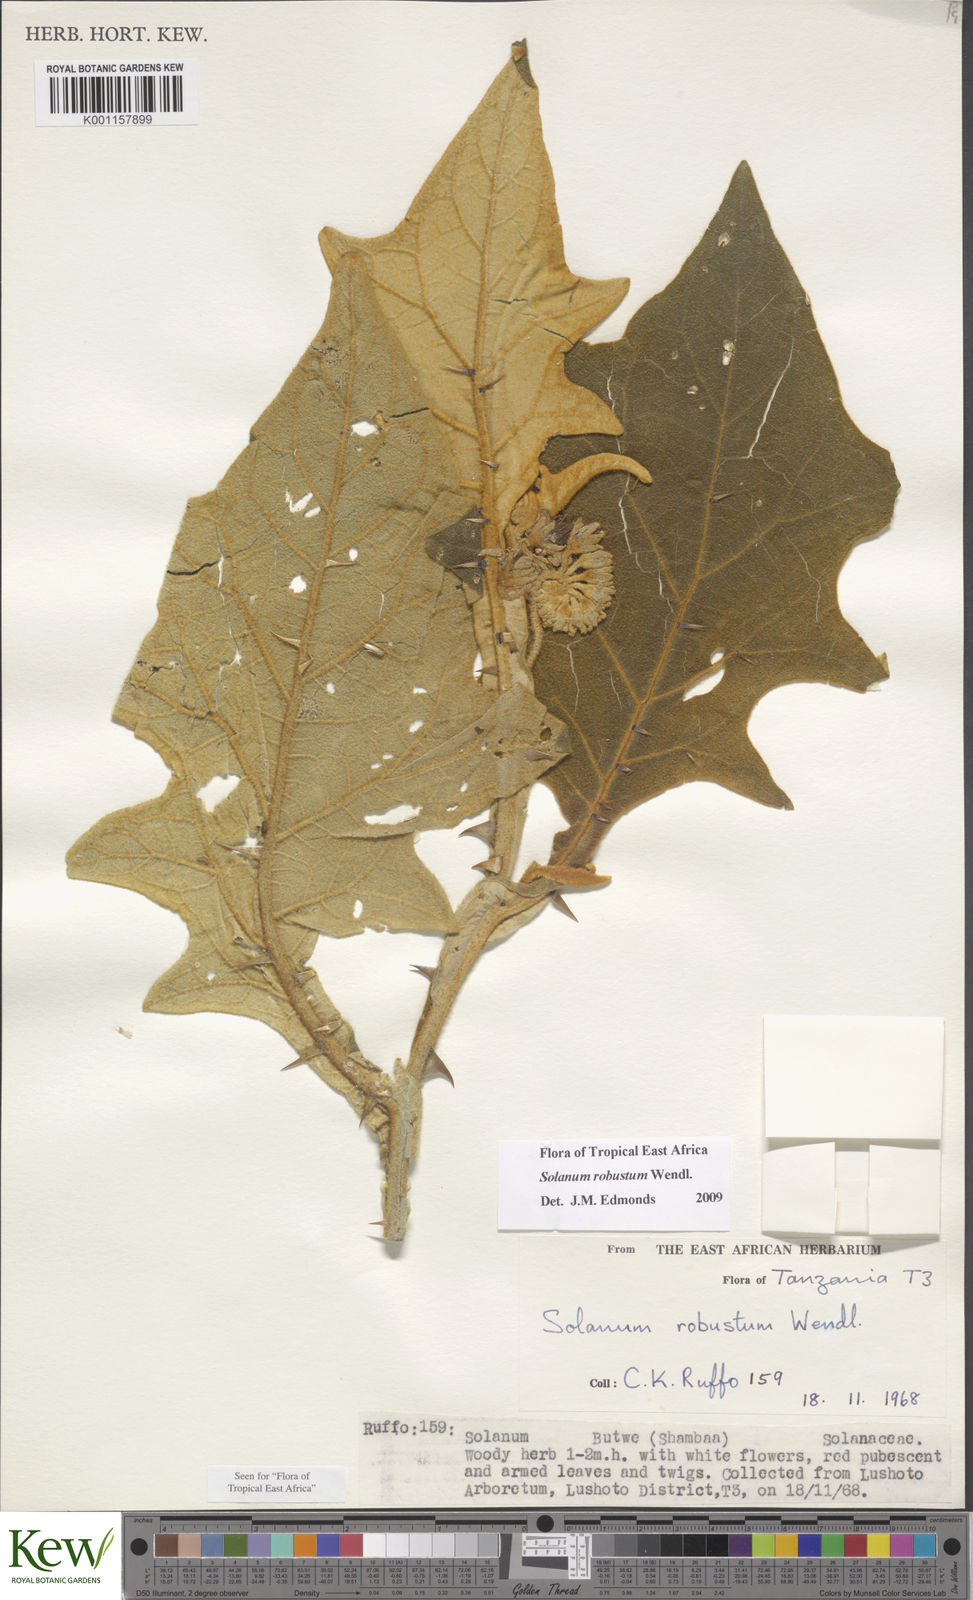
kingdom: Plantae
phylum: Tracheophyta
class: Magnoliopsida
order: Solanales
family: Solanaceae
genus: Solanum
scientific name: Solanum robustum
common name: Shrubby nightshade
